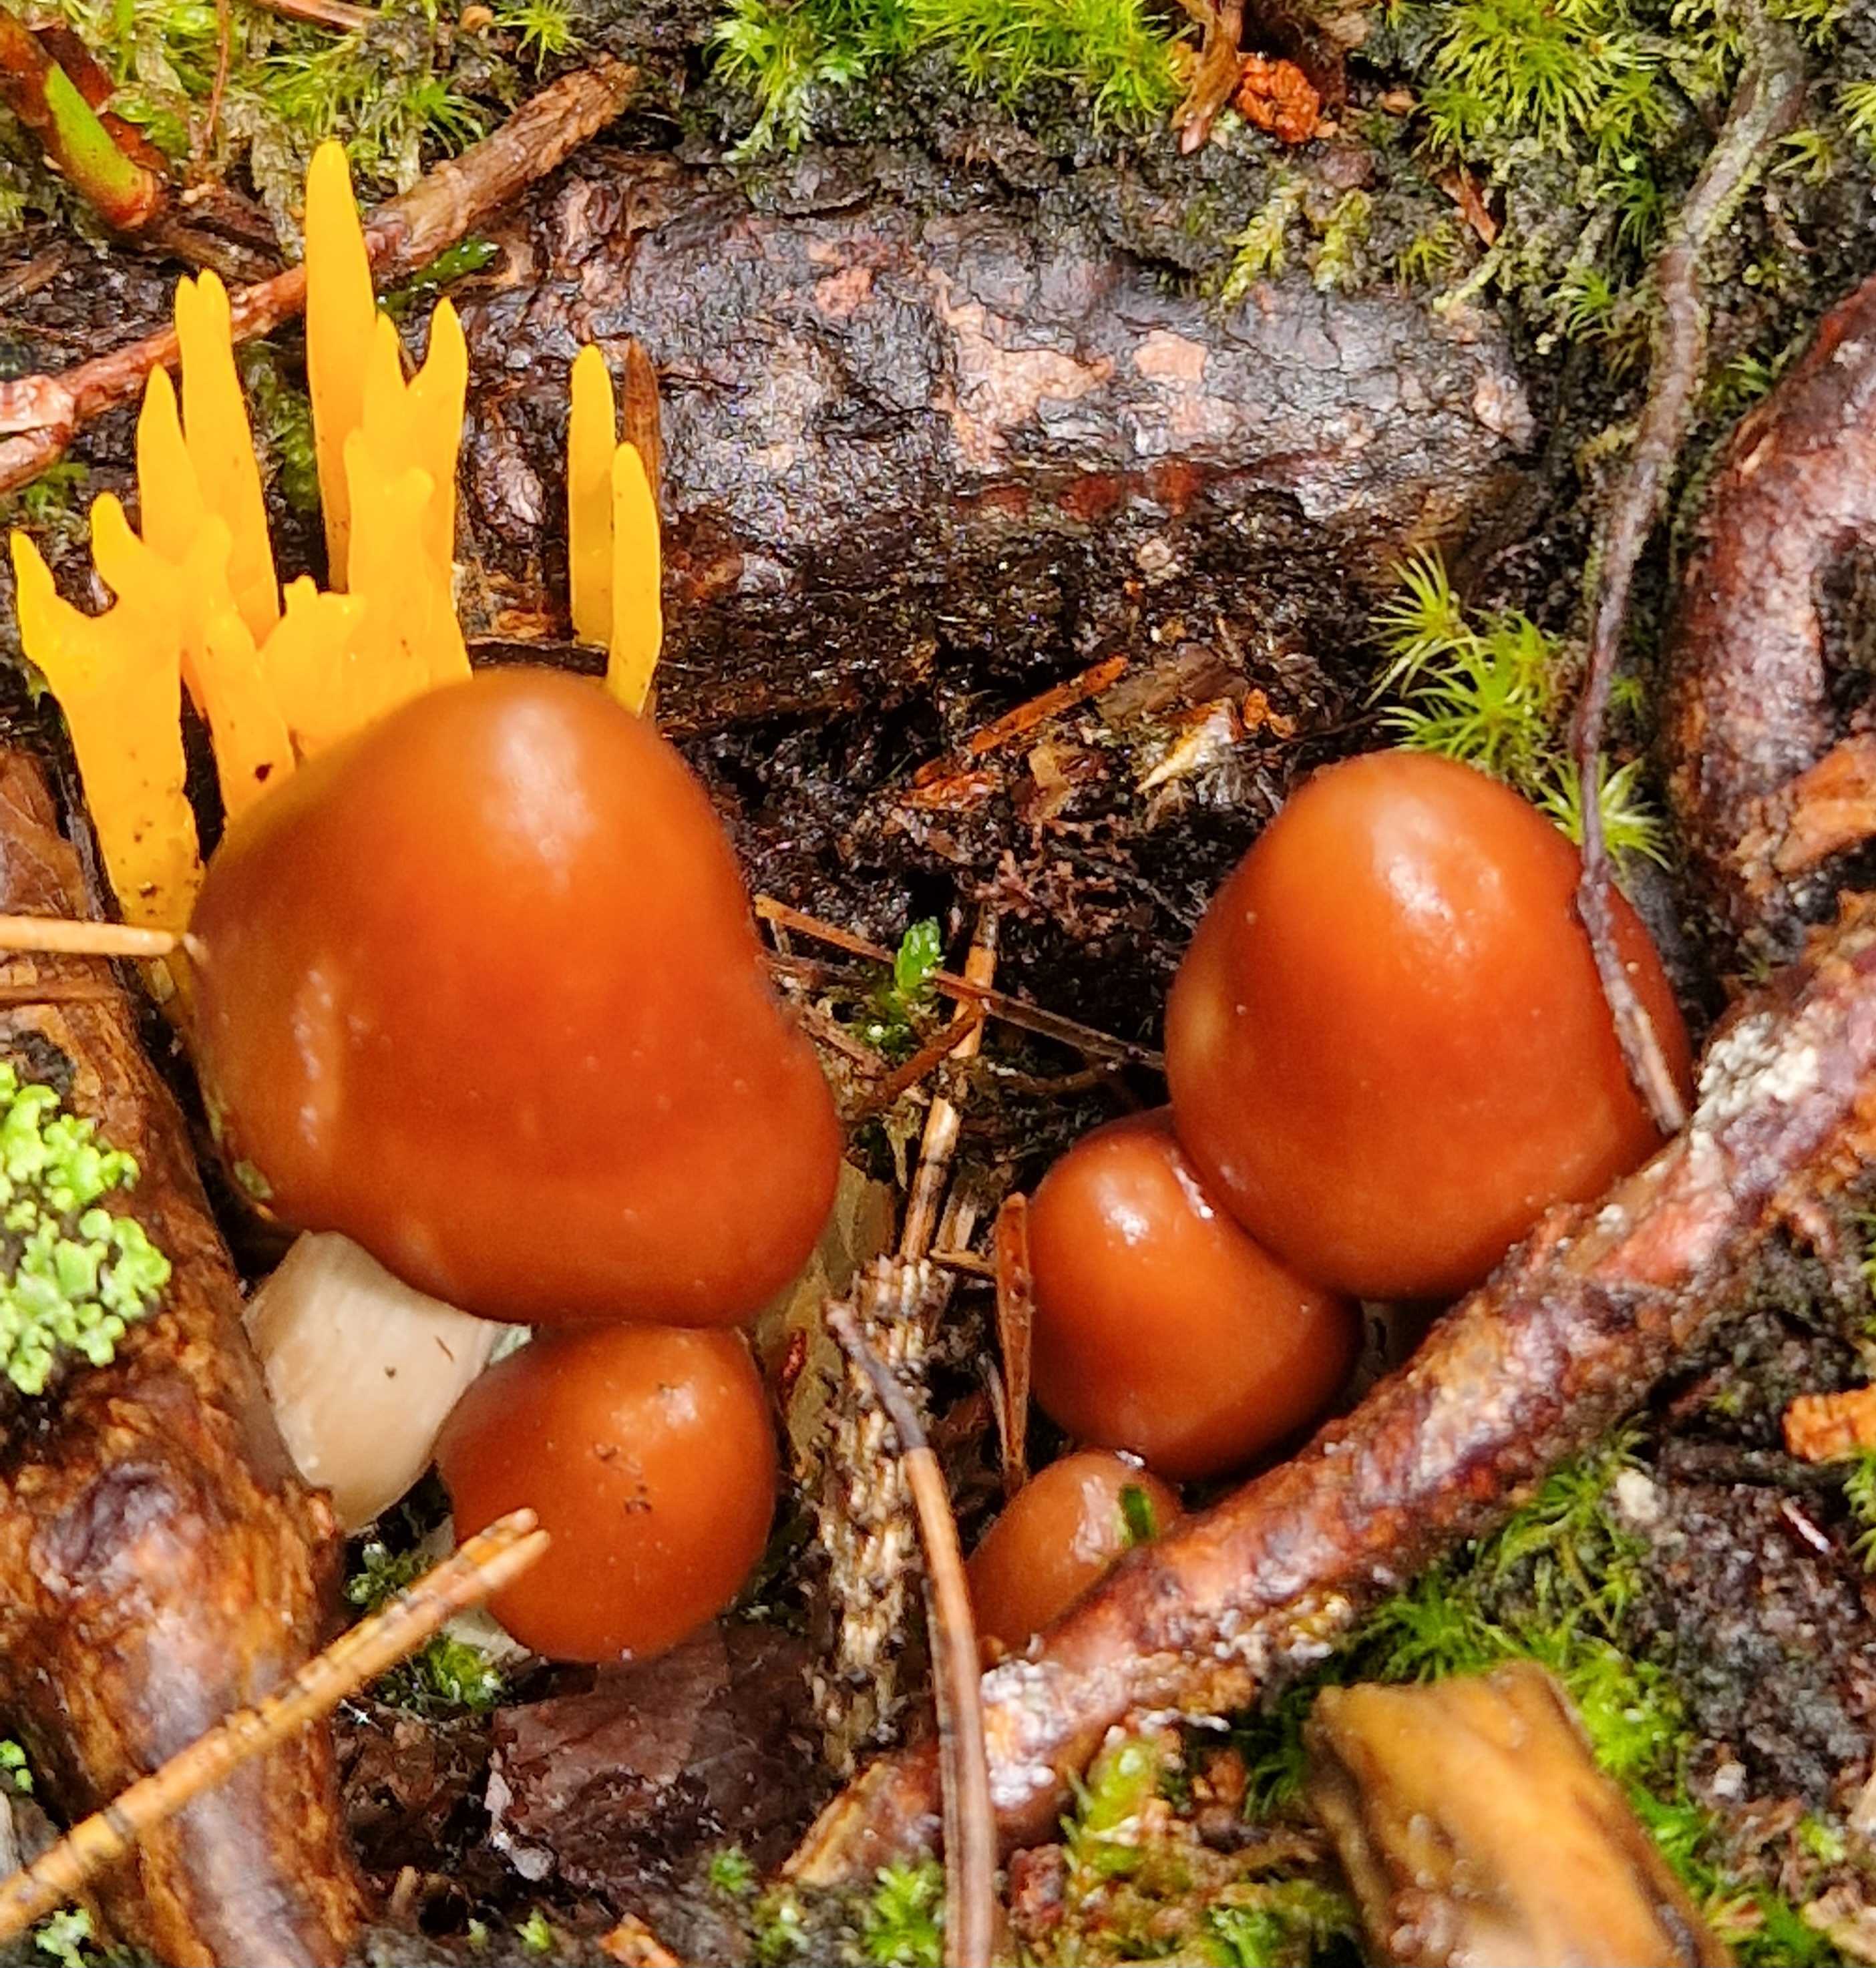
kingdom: Fungi
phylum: Basidiomycota
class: Agaricomycetes
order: Agaricales
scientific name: Agaricales
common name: champignonordenen
